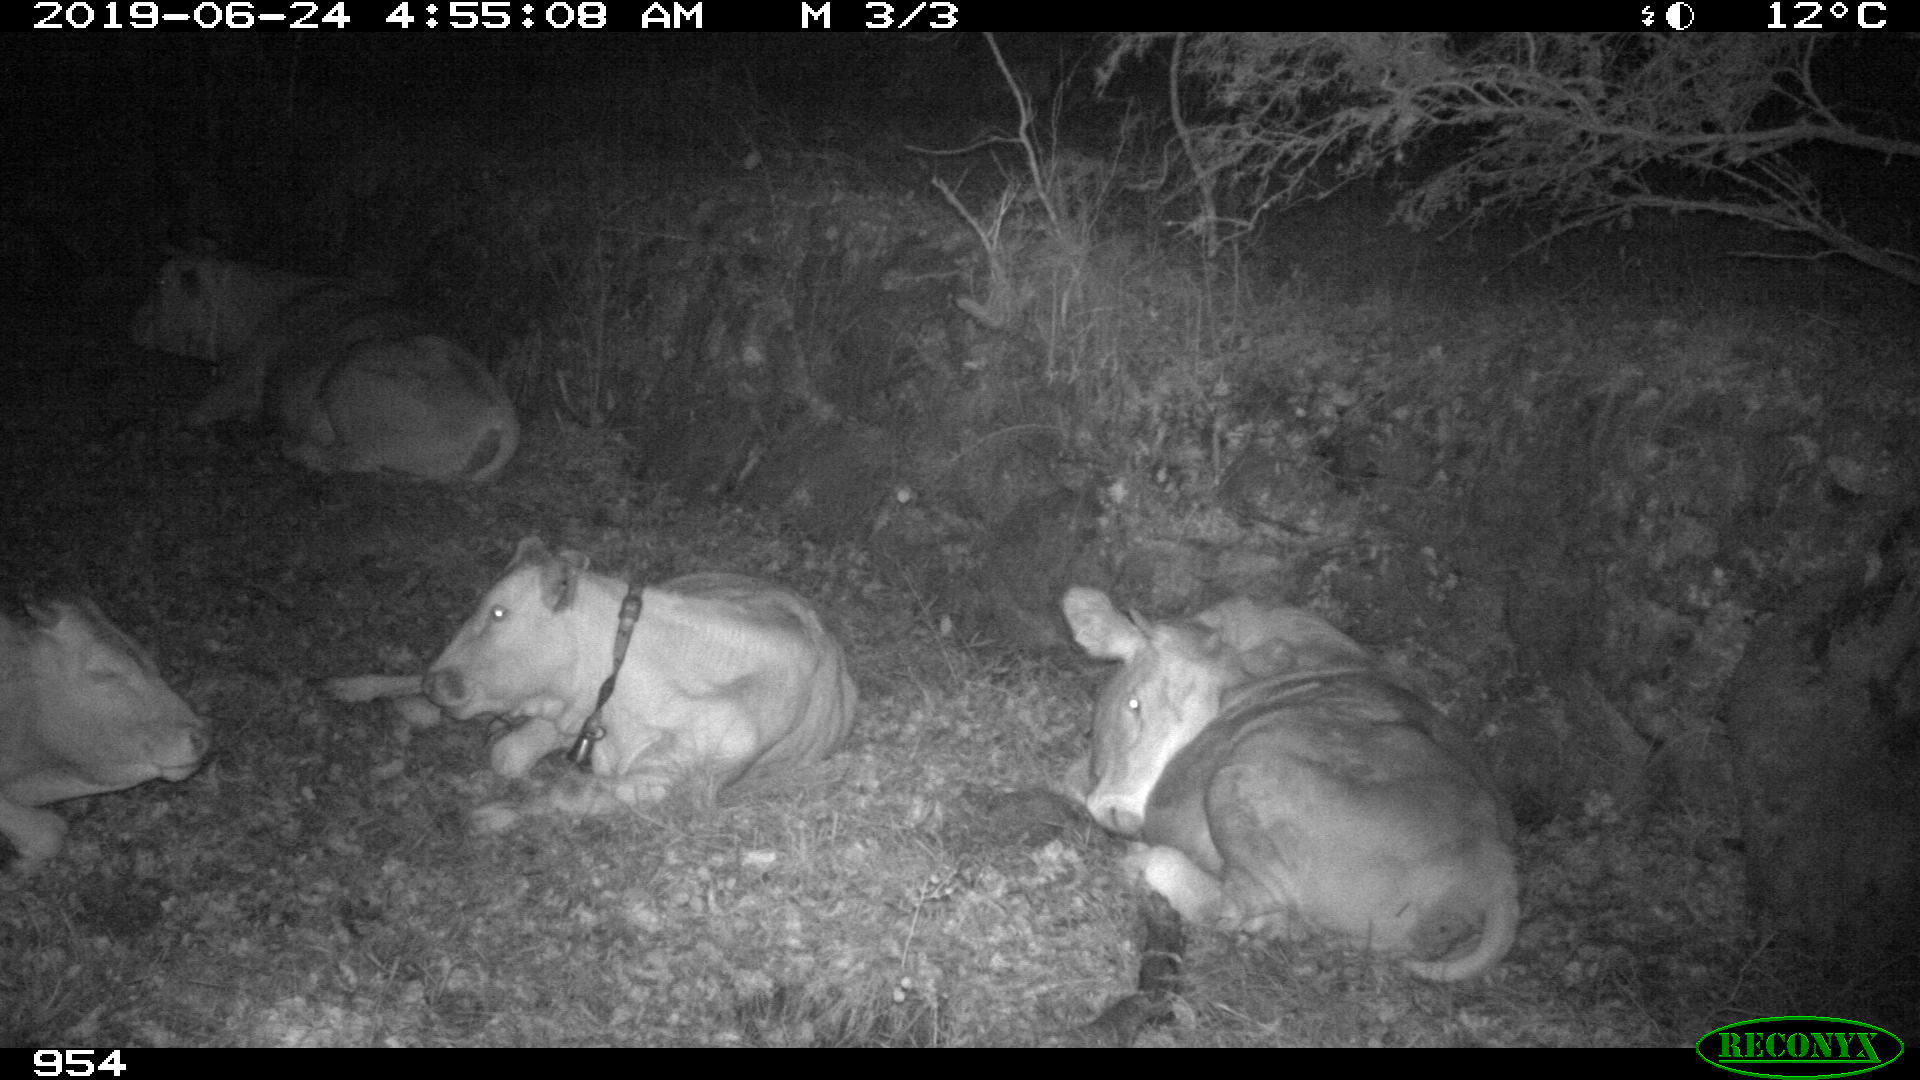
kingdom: Animalia
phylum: Chordata
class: Mammalia
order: Artiodactyla
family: Bovidae
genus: Bos
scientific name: Bos taurus
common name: Domesticated cattle
